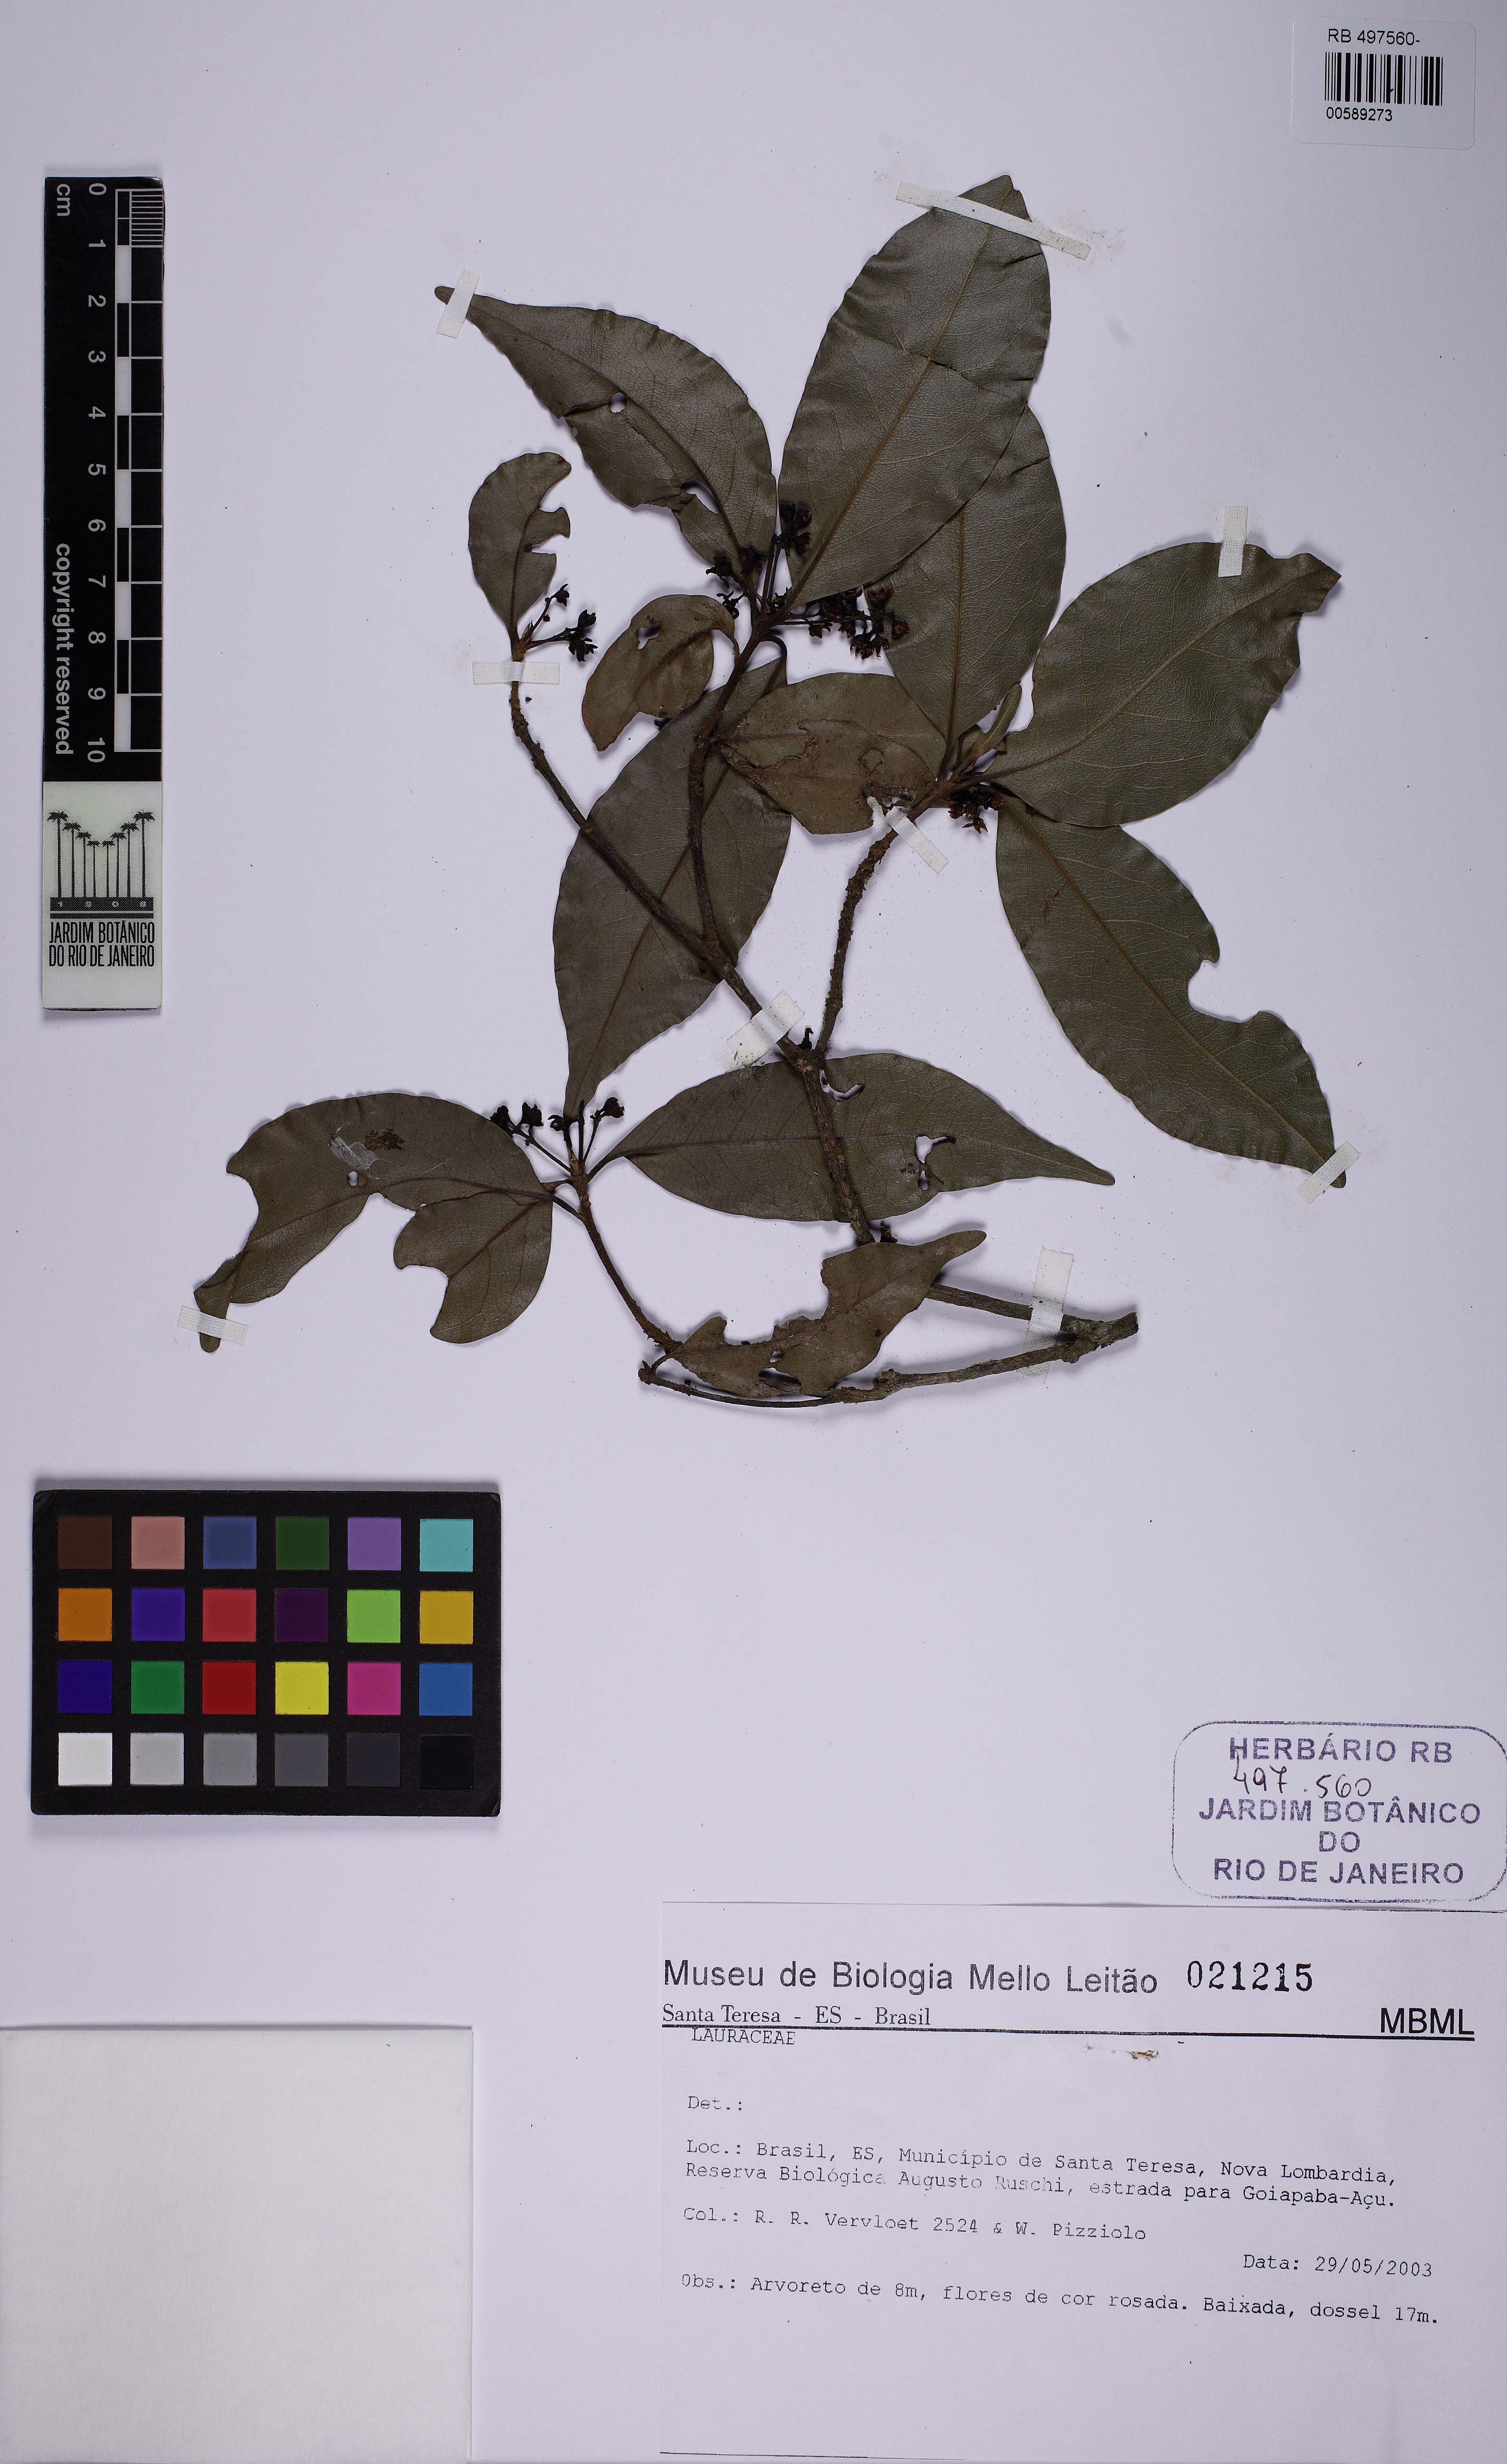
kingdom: Plantae
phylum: Tracheophyta
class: Magnoliopsida
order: Laurales
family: Lauraceae
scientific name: Lauraceae
